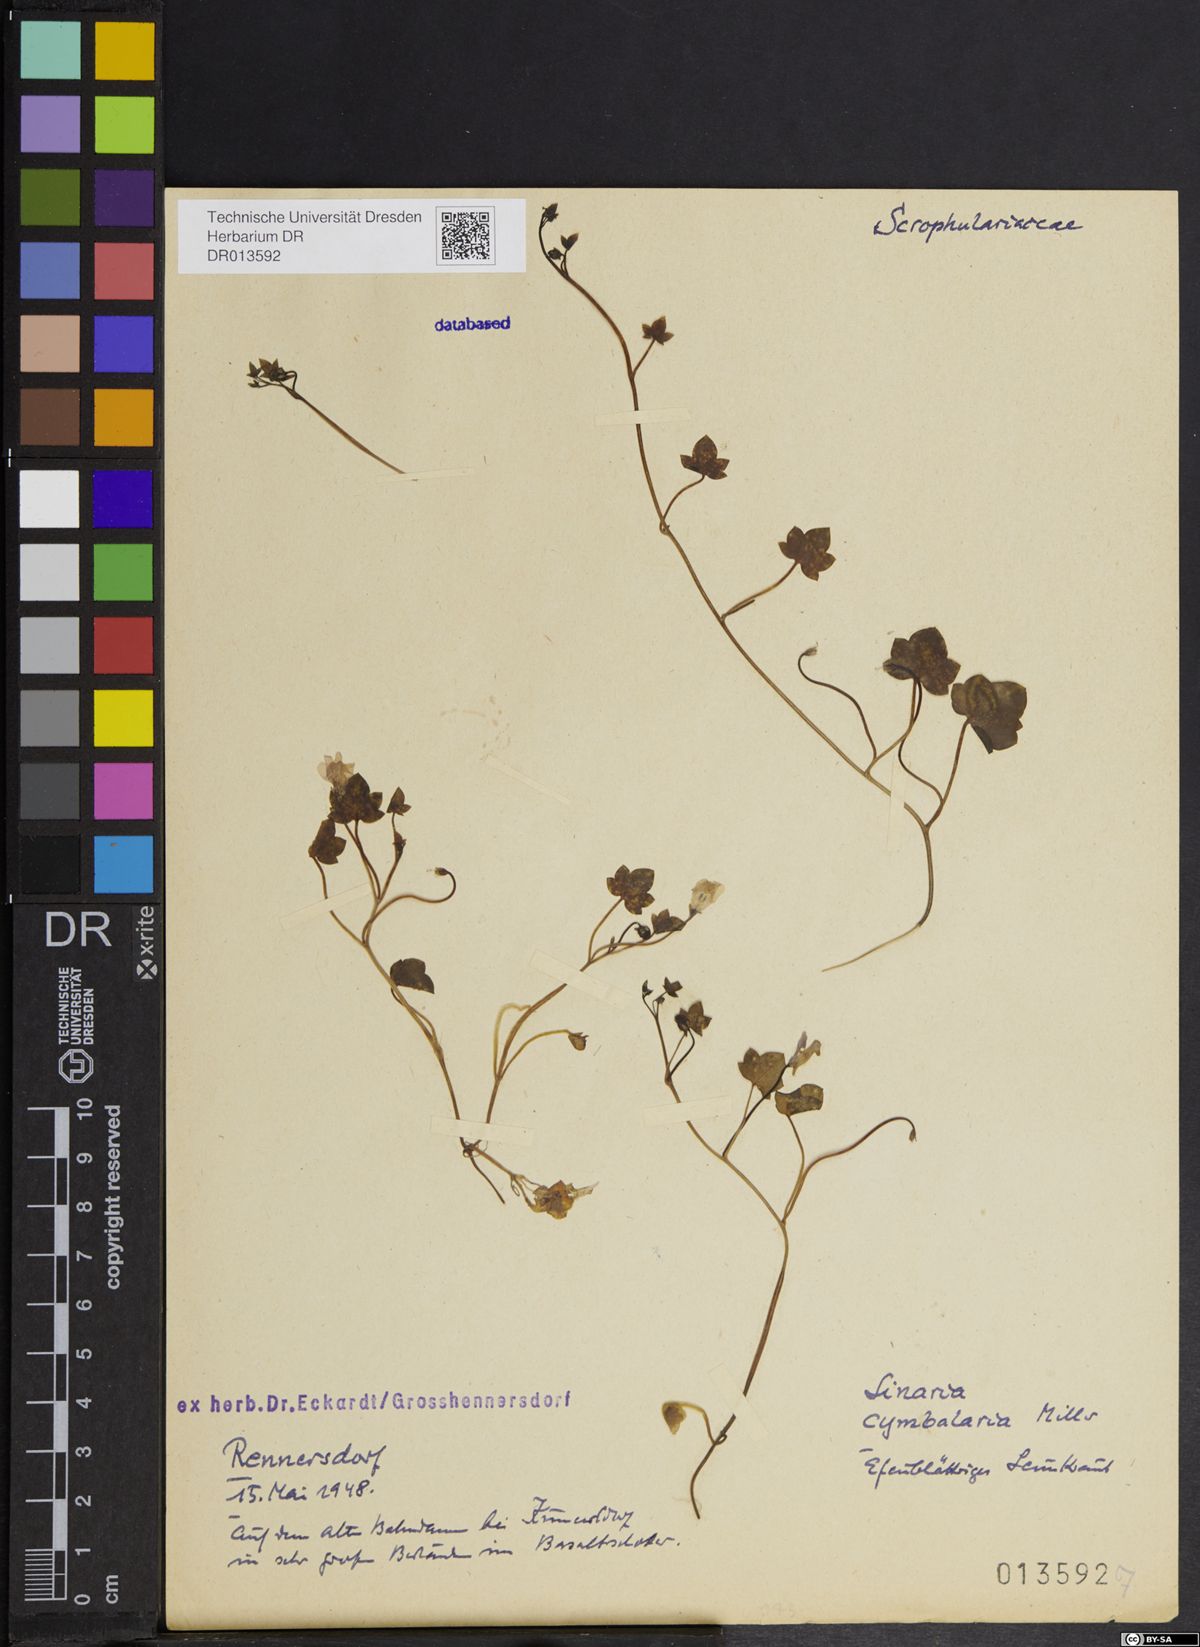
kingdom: Plantae
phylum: Tracheophyta
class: Magnoliopsida
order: Lamiales
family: Plantaginaceae
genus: Cymbalaria
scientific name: Cymbalaria muralis
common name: Ivy-leaved toadflax
